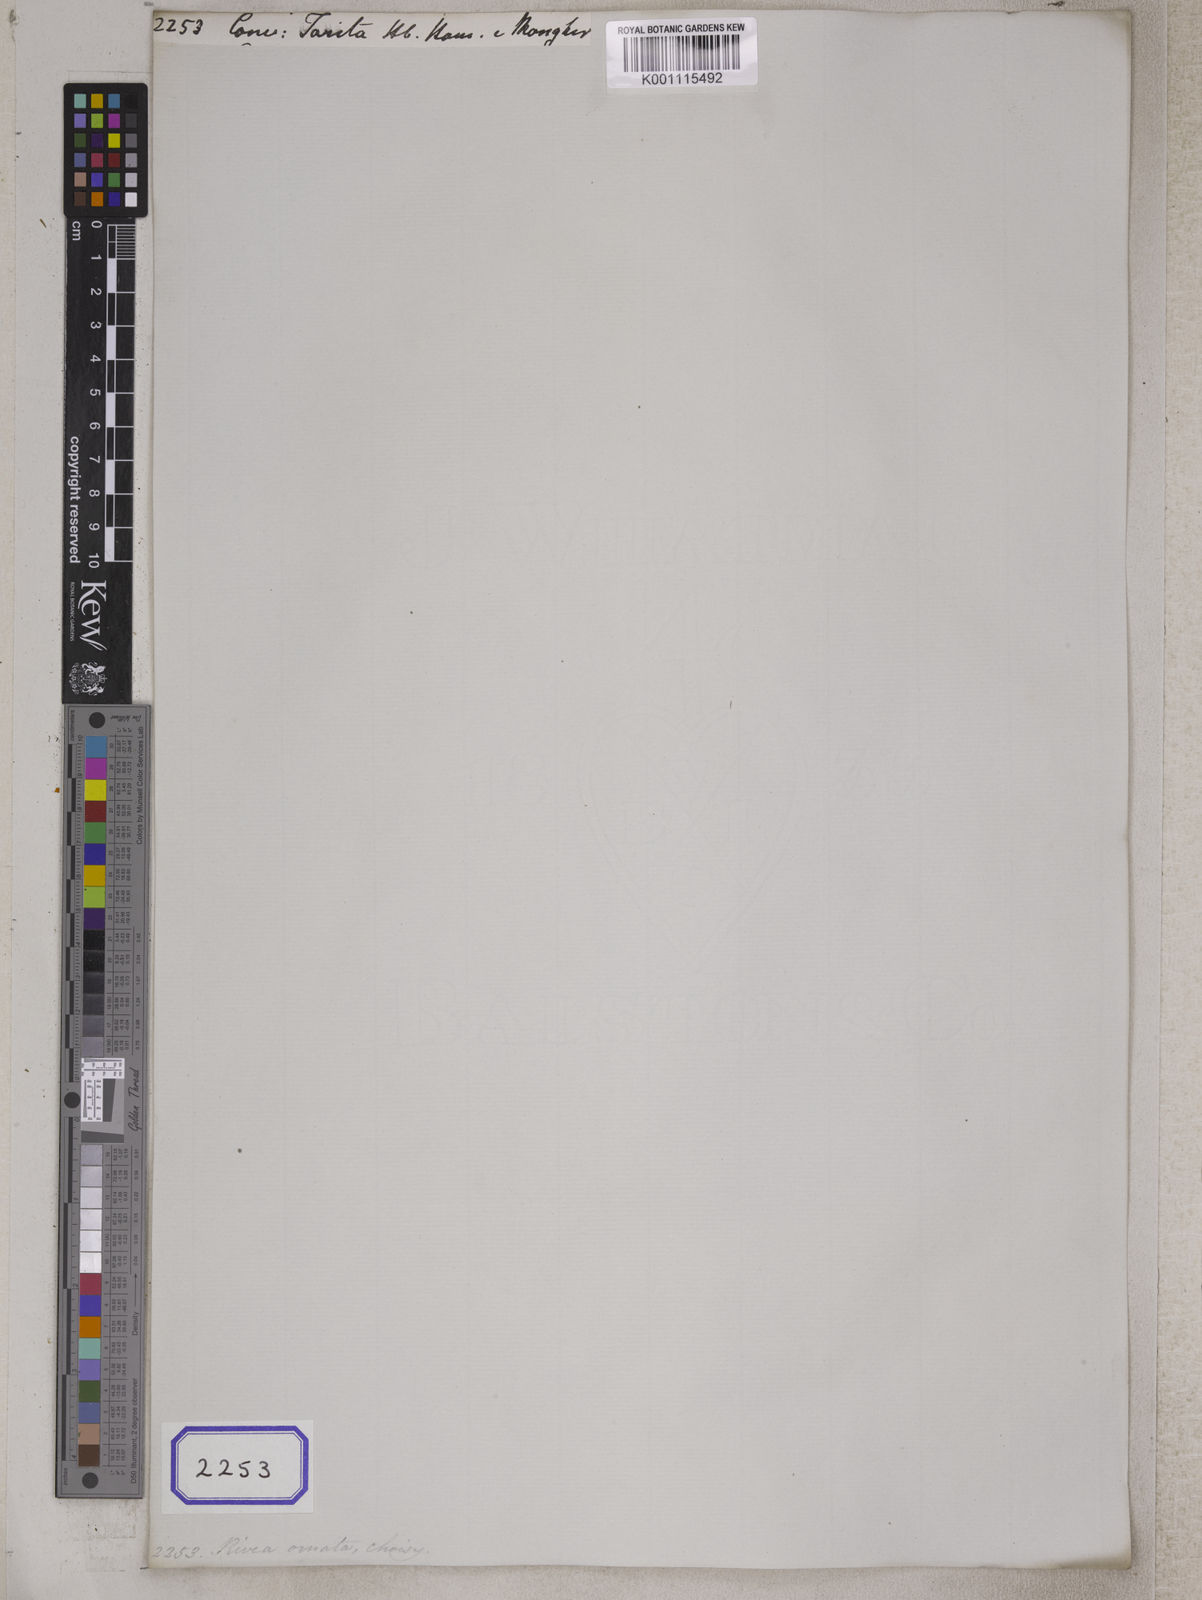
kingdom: Plantae
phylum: Tracheophyta
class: Magnoliopsida
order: Solanales
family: Convolvulaceae
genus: Convolvulus
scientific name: Convolvulus
